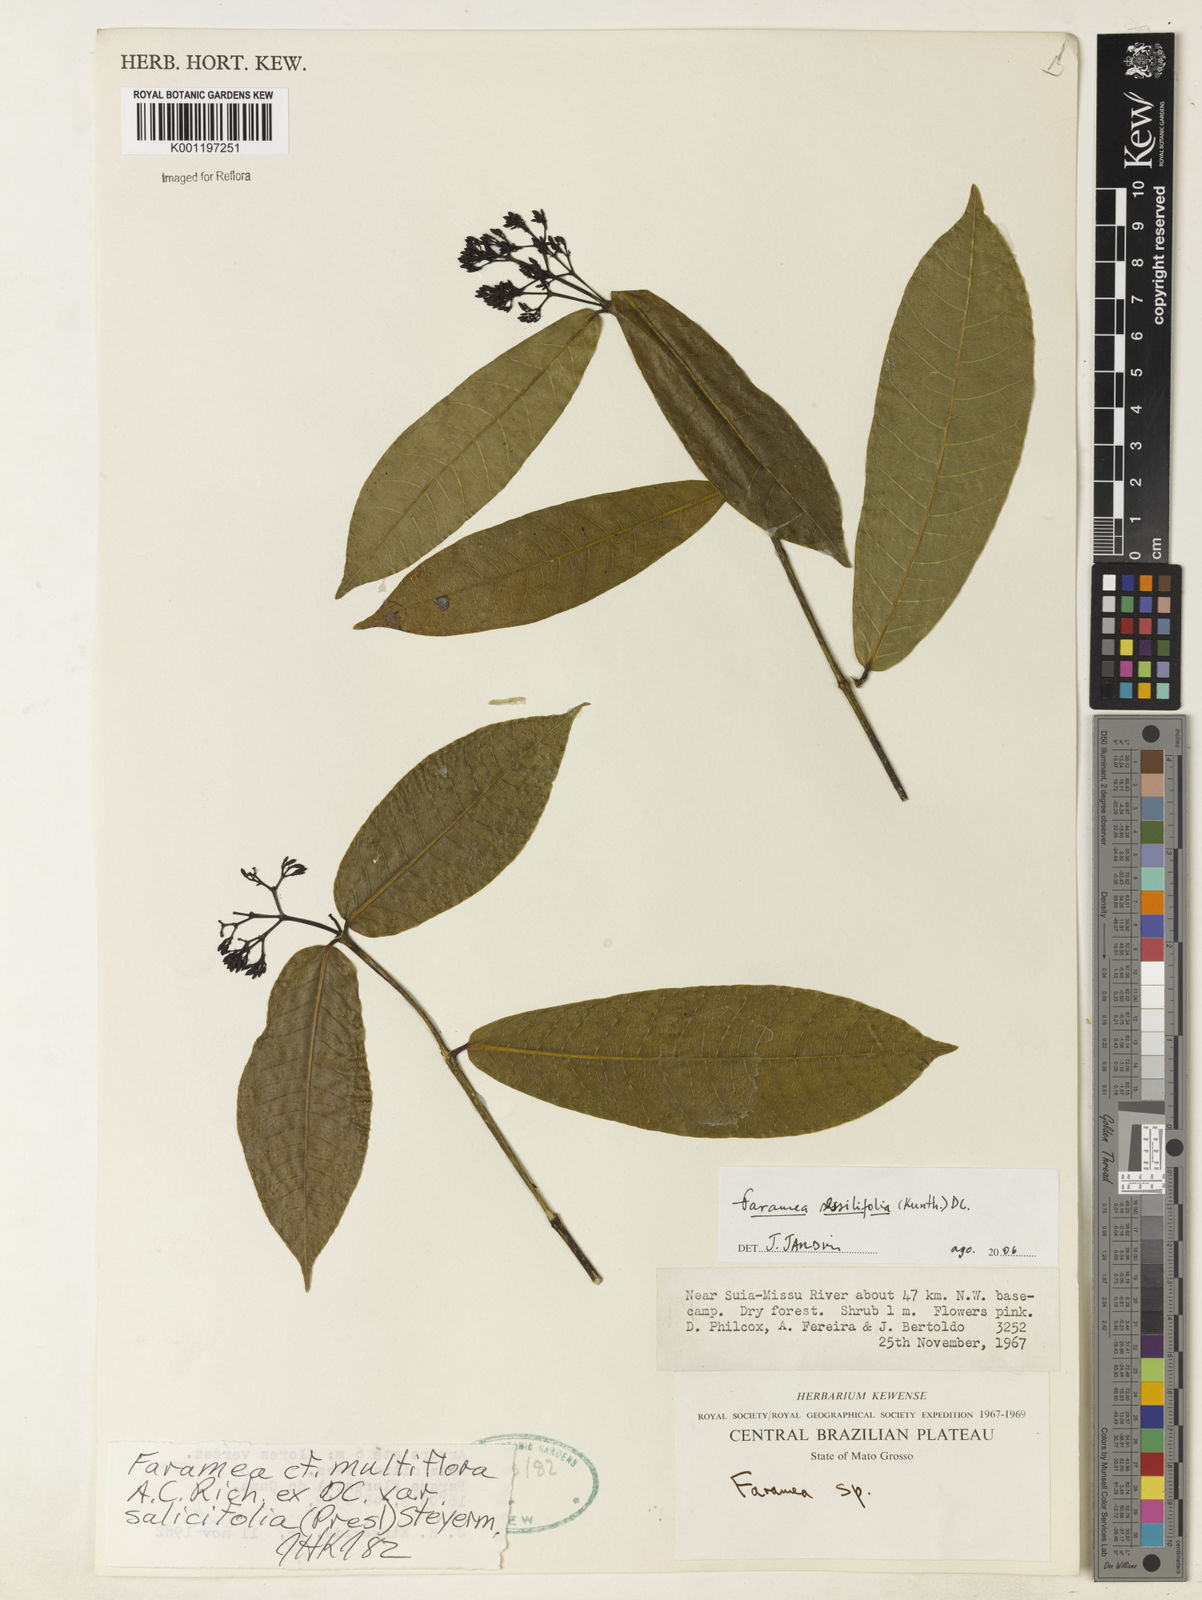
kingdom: Plantae
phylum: Tracheophyta
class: Magnoliopsida
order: Gentianales
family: Rubiaceae
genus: Faramea
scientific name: Faramea sessilifolia
